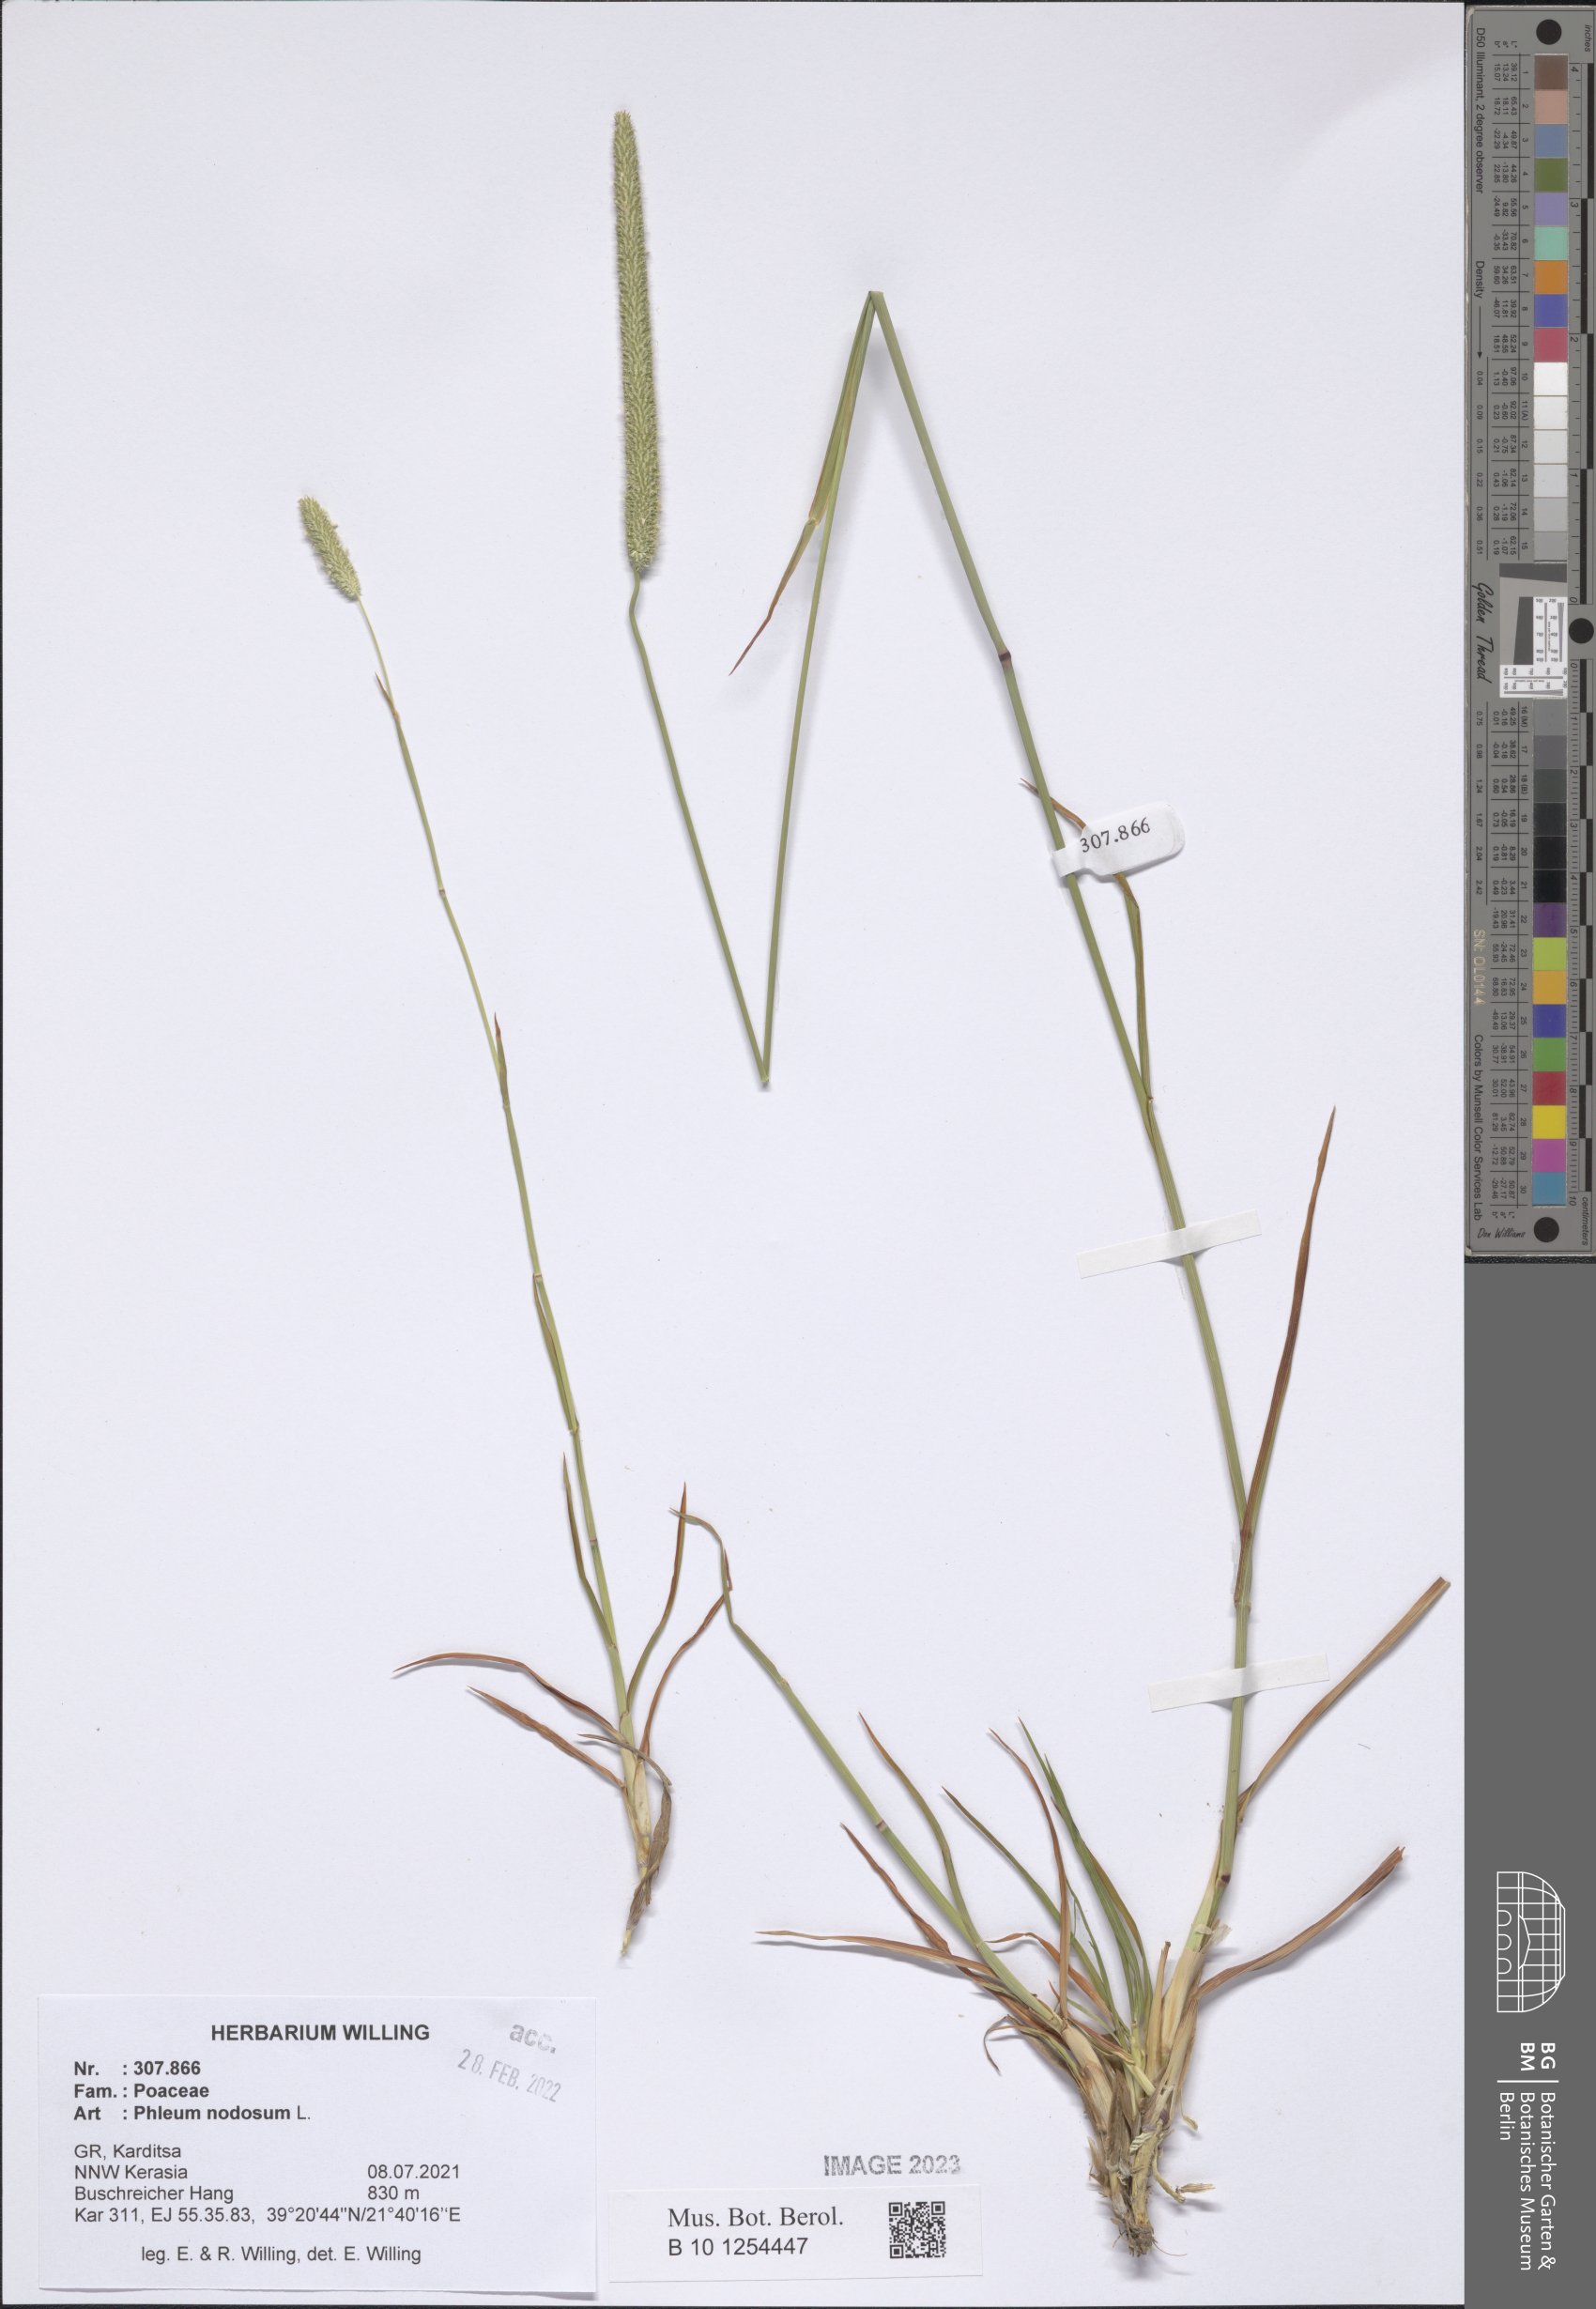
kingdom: Plantae
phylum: Tracheophyta
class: Liliopsida
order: Poales
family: Poaceae
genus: Phleum
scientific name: Phleum pratense
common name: Timothy grass
